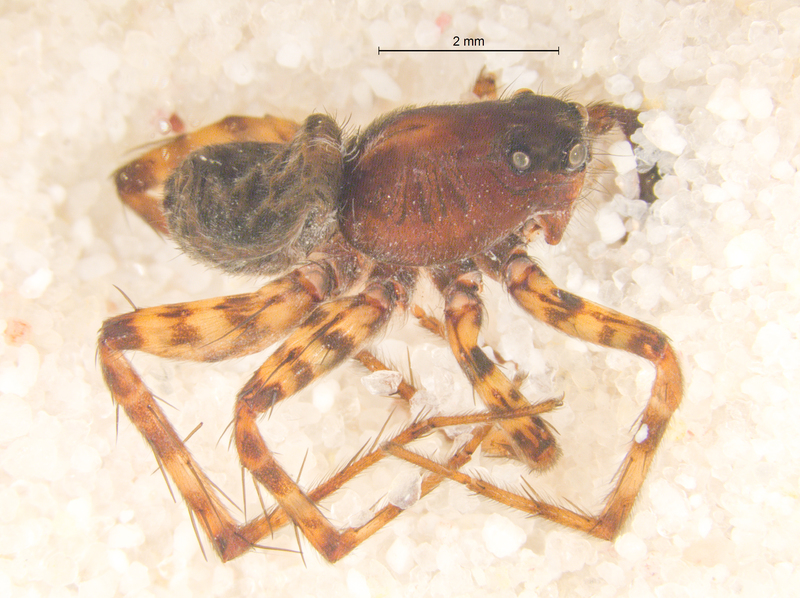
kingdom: Animalia
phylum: Arthropoda
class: Arachnida
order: Araneae
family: Lycosidae
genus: Pardosa
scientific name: Pardosa prativaga
